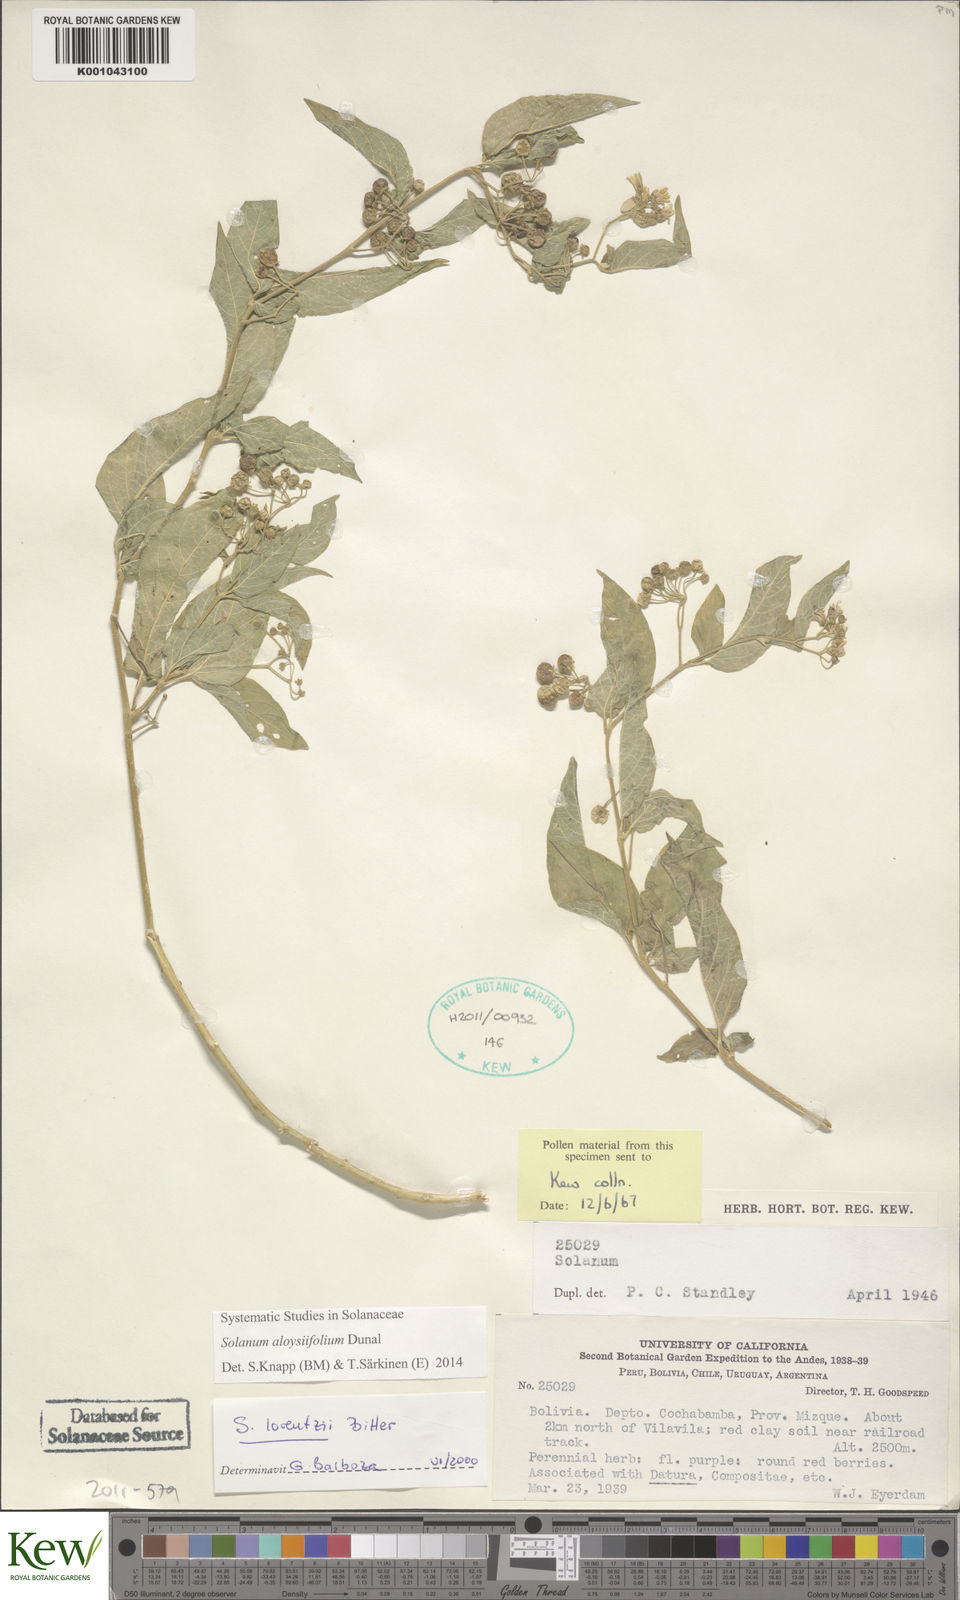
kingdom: Plantae
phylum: Tracheophyta
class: Magnoliopsida
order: Solanales
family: Solanaceae
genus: Solanum
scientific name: Solanum aloysiifolium
